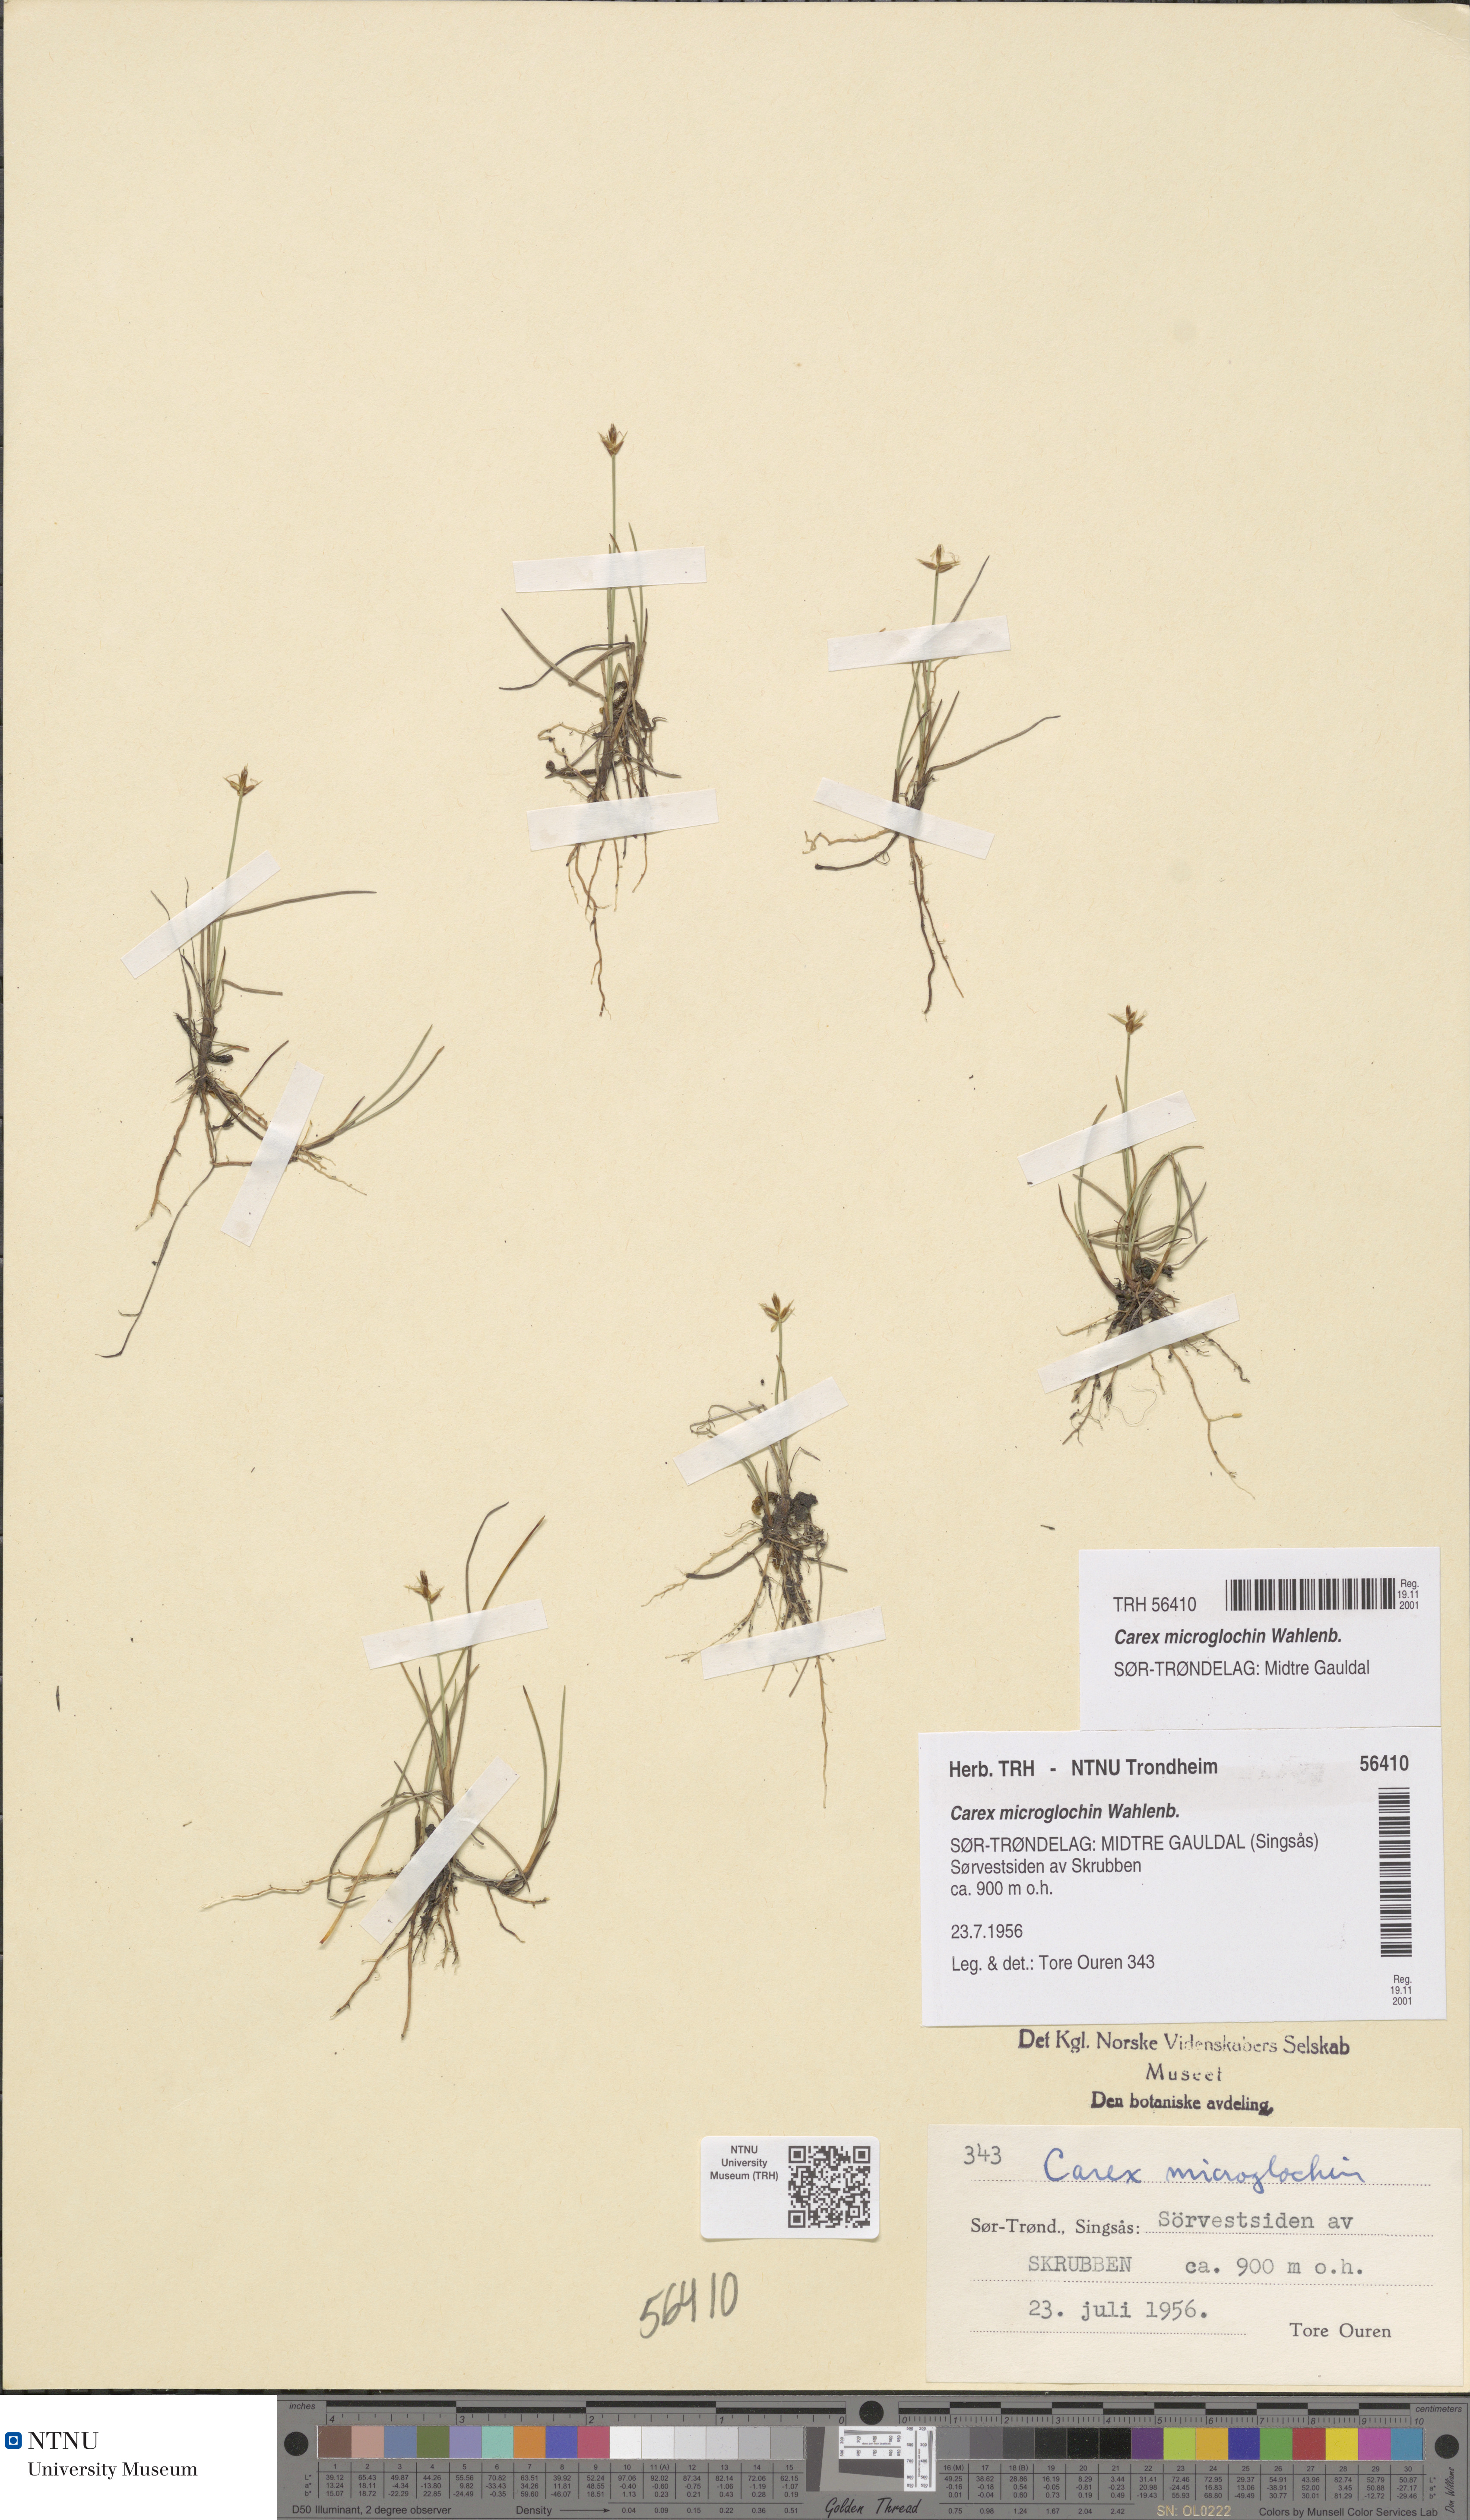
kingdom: Plantae
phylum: Tracheophyta
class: Liliopsida
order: Poales
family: Cyperaceae
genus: Carex
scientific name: Carex microglochin
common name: Bristle sedge
